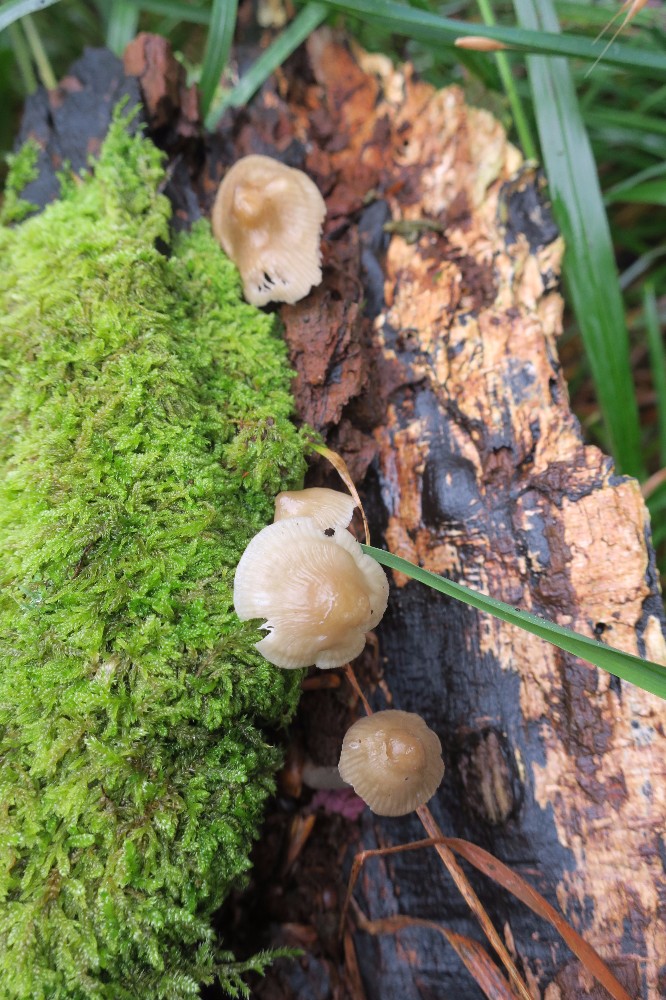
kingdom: Fungi
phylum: Basidiomycota
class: Agaricomycetes
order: Agaricales
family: Mycenaceae
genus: Mycena
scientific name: Mycena galericulata
